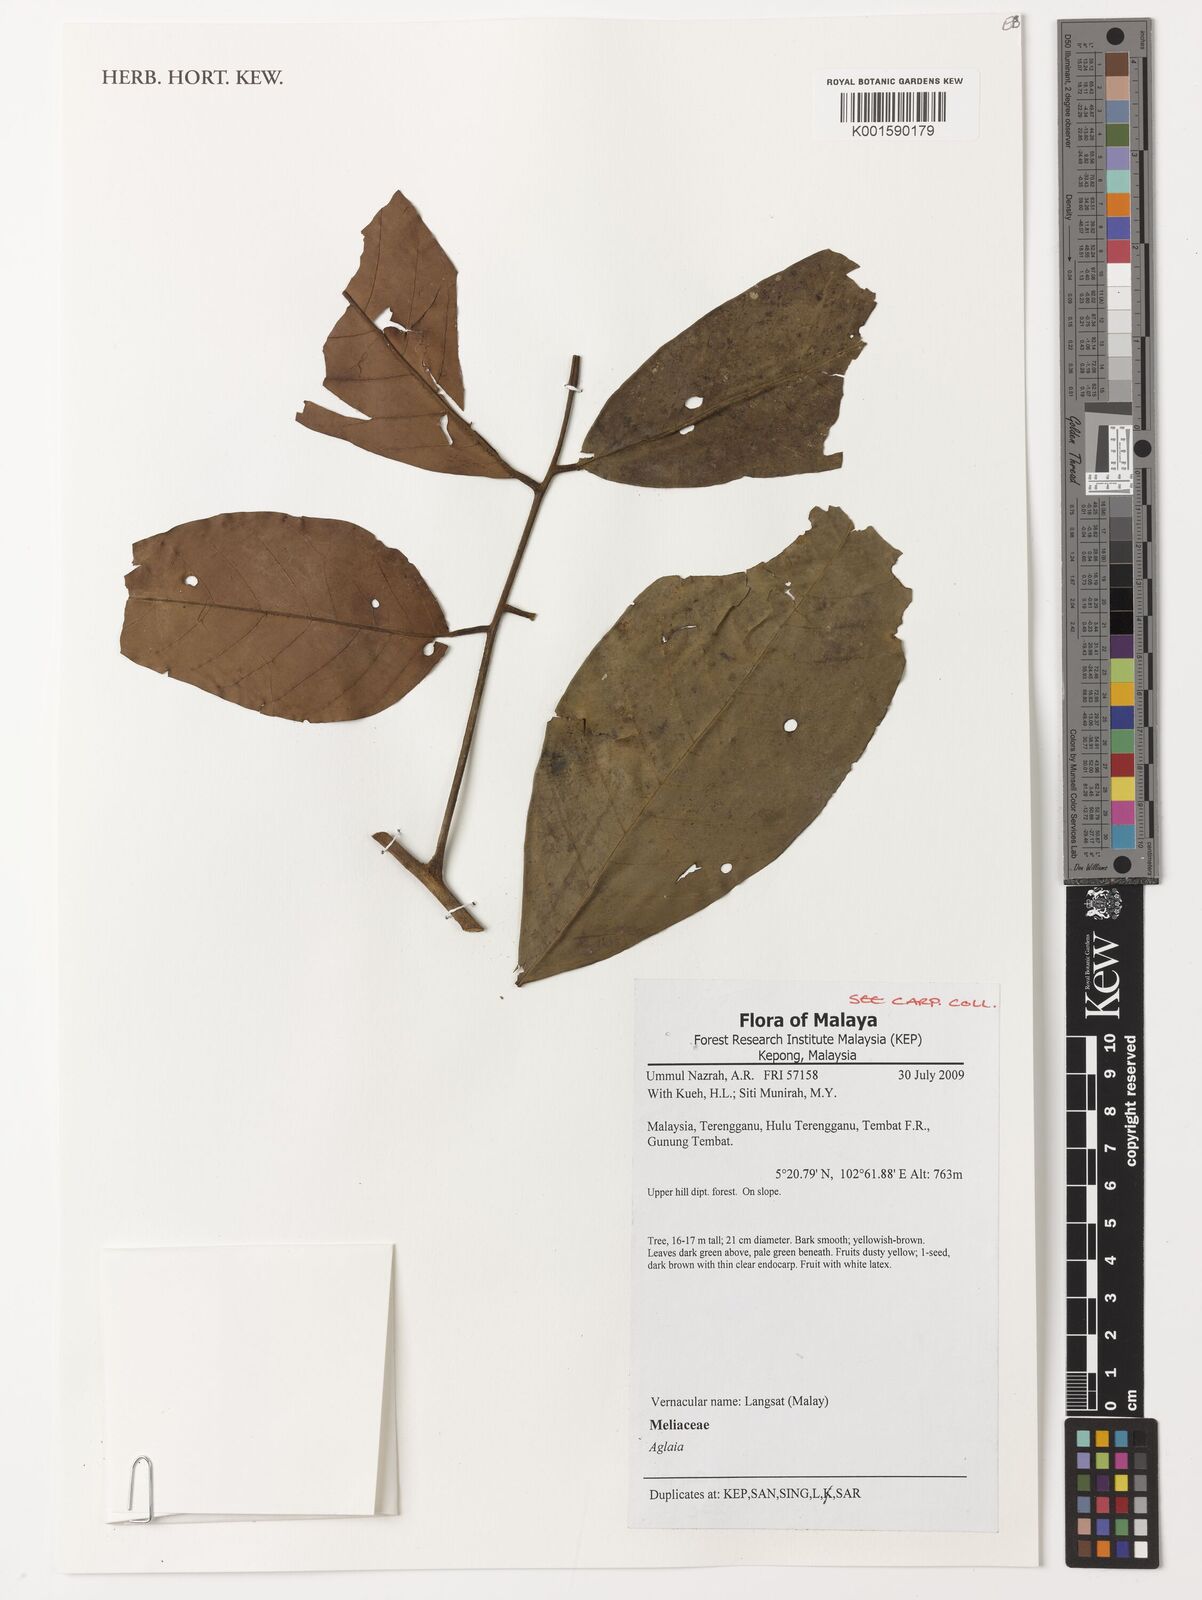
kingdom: Plantae
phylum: Tracheophyta
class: Magnoliopsida
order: Sapindales
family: Meliaceae
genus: Aglaia
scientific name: Aglaia
